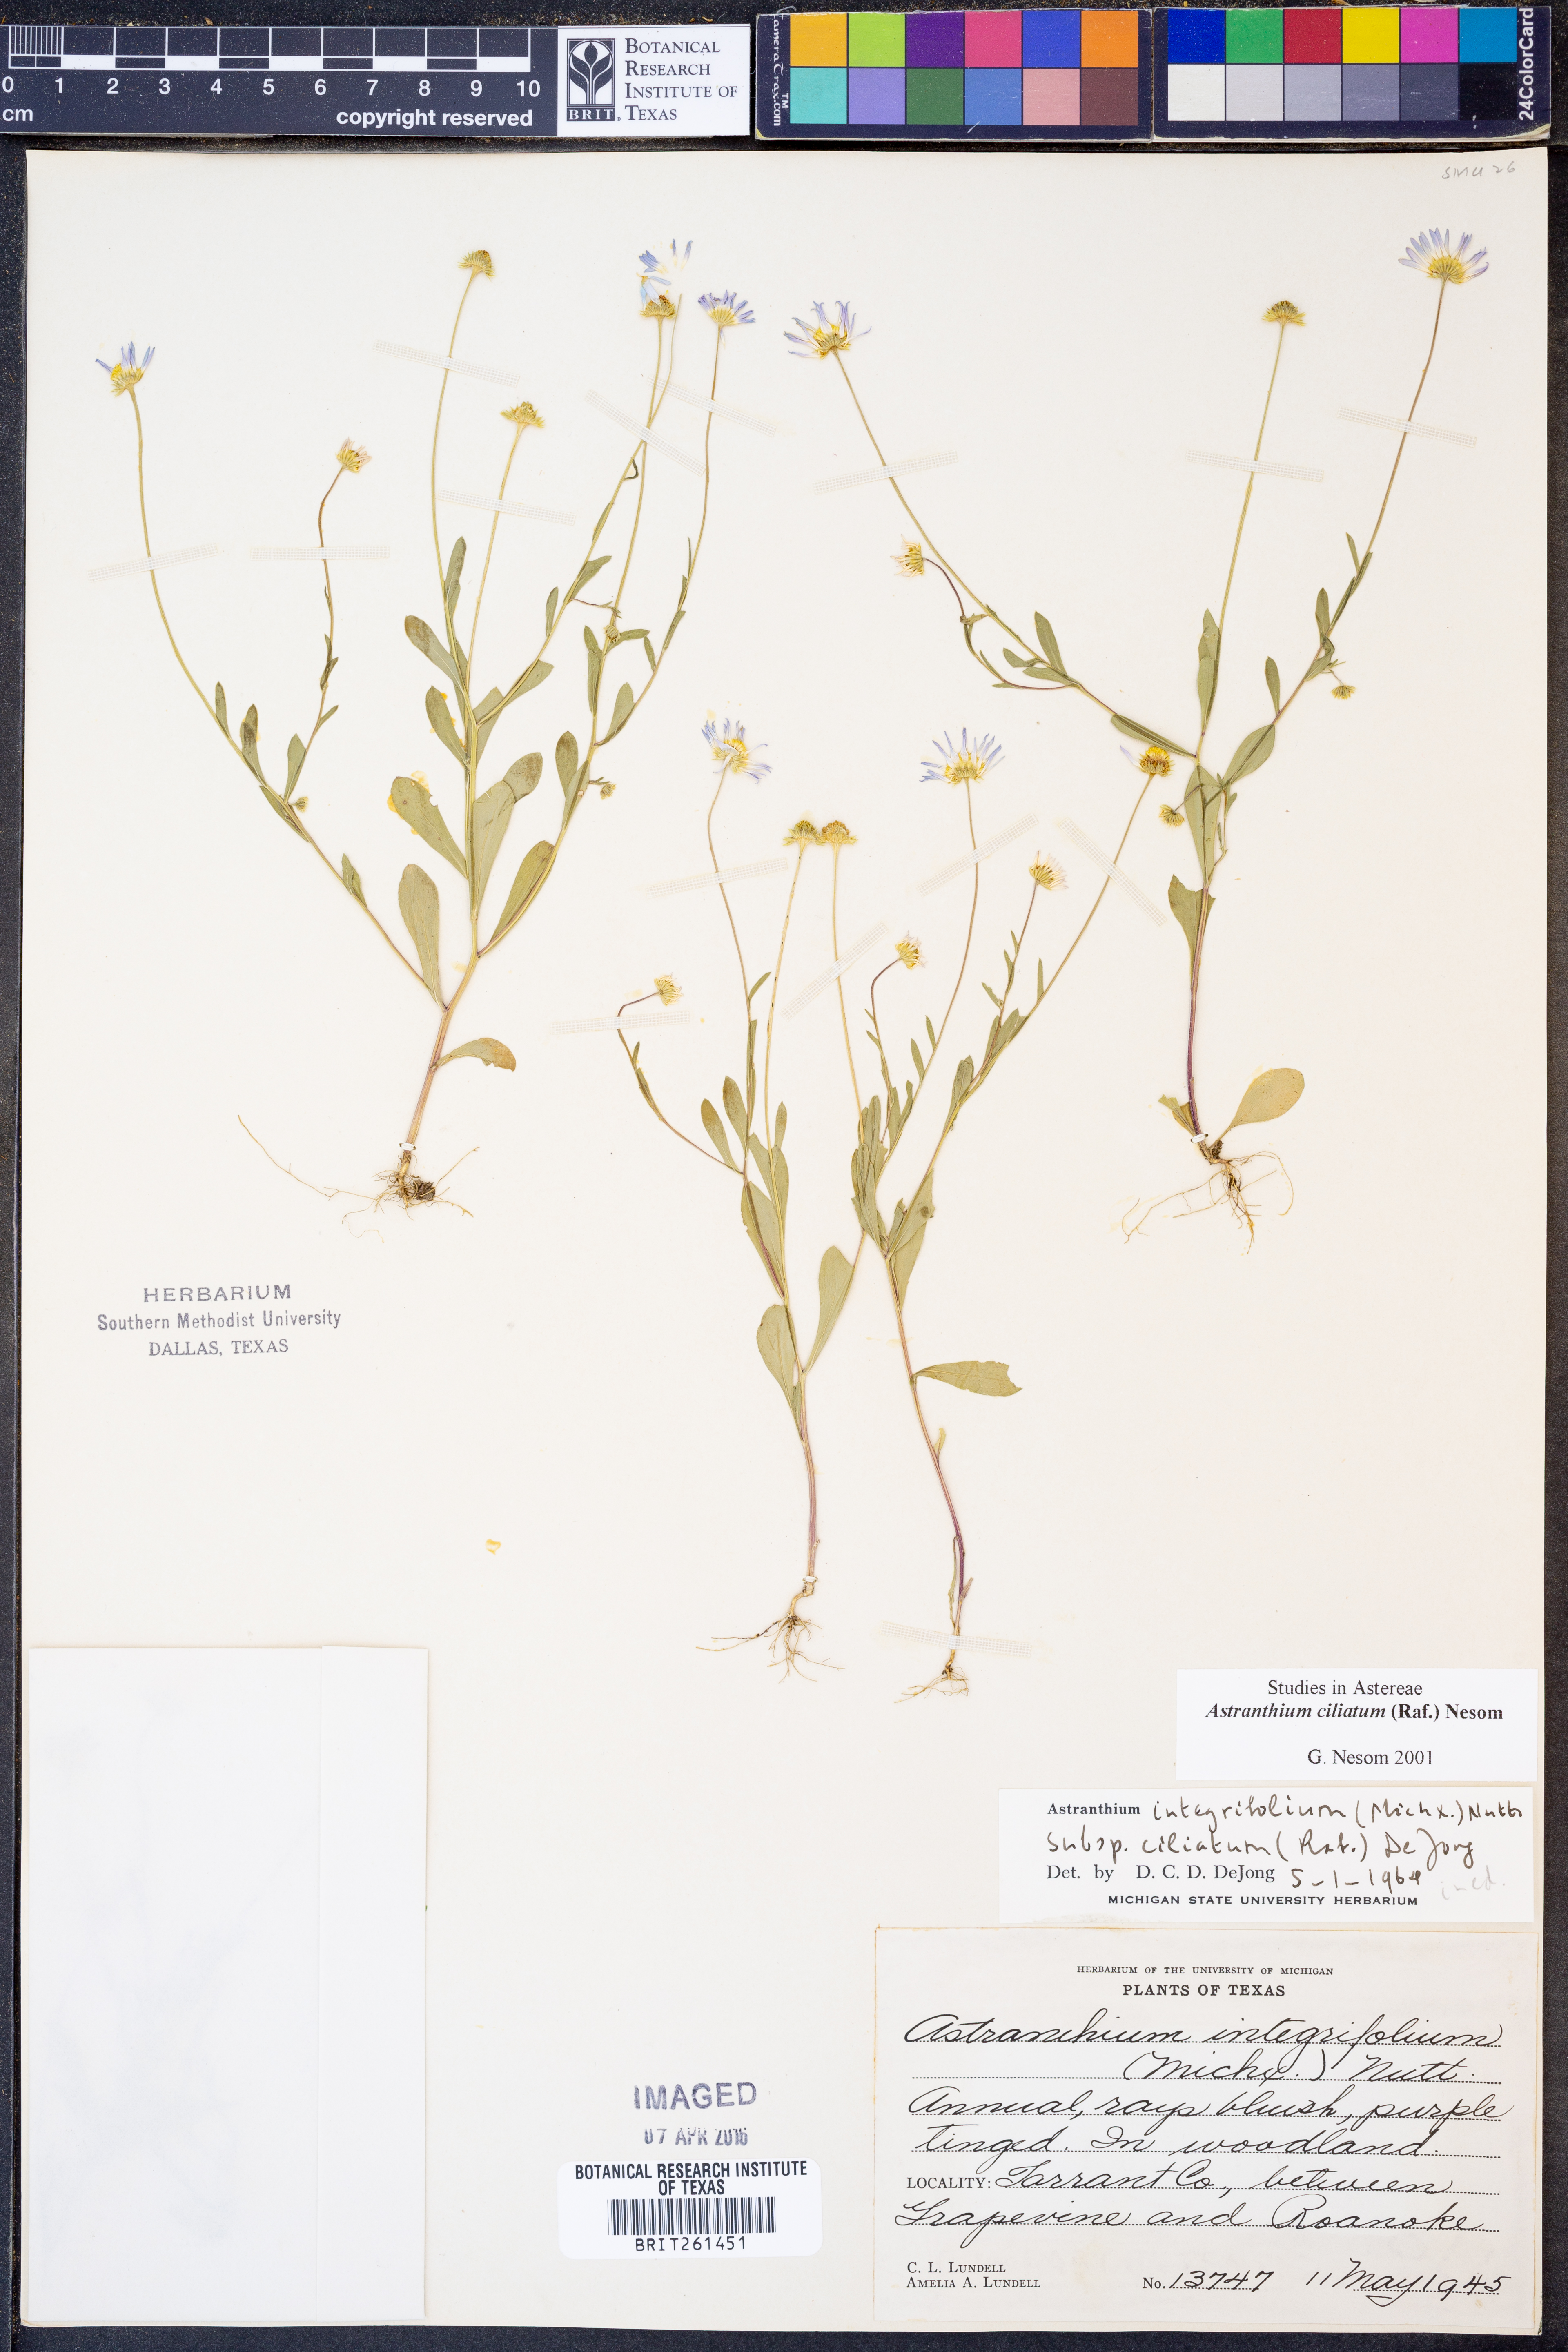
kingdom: Plantae
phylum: Tracheophyta
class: Magnoliopsida
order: Asterales
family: Asteraceae
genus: Astranthium
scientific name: Astranthium ciliatum
